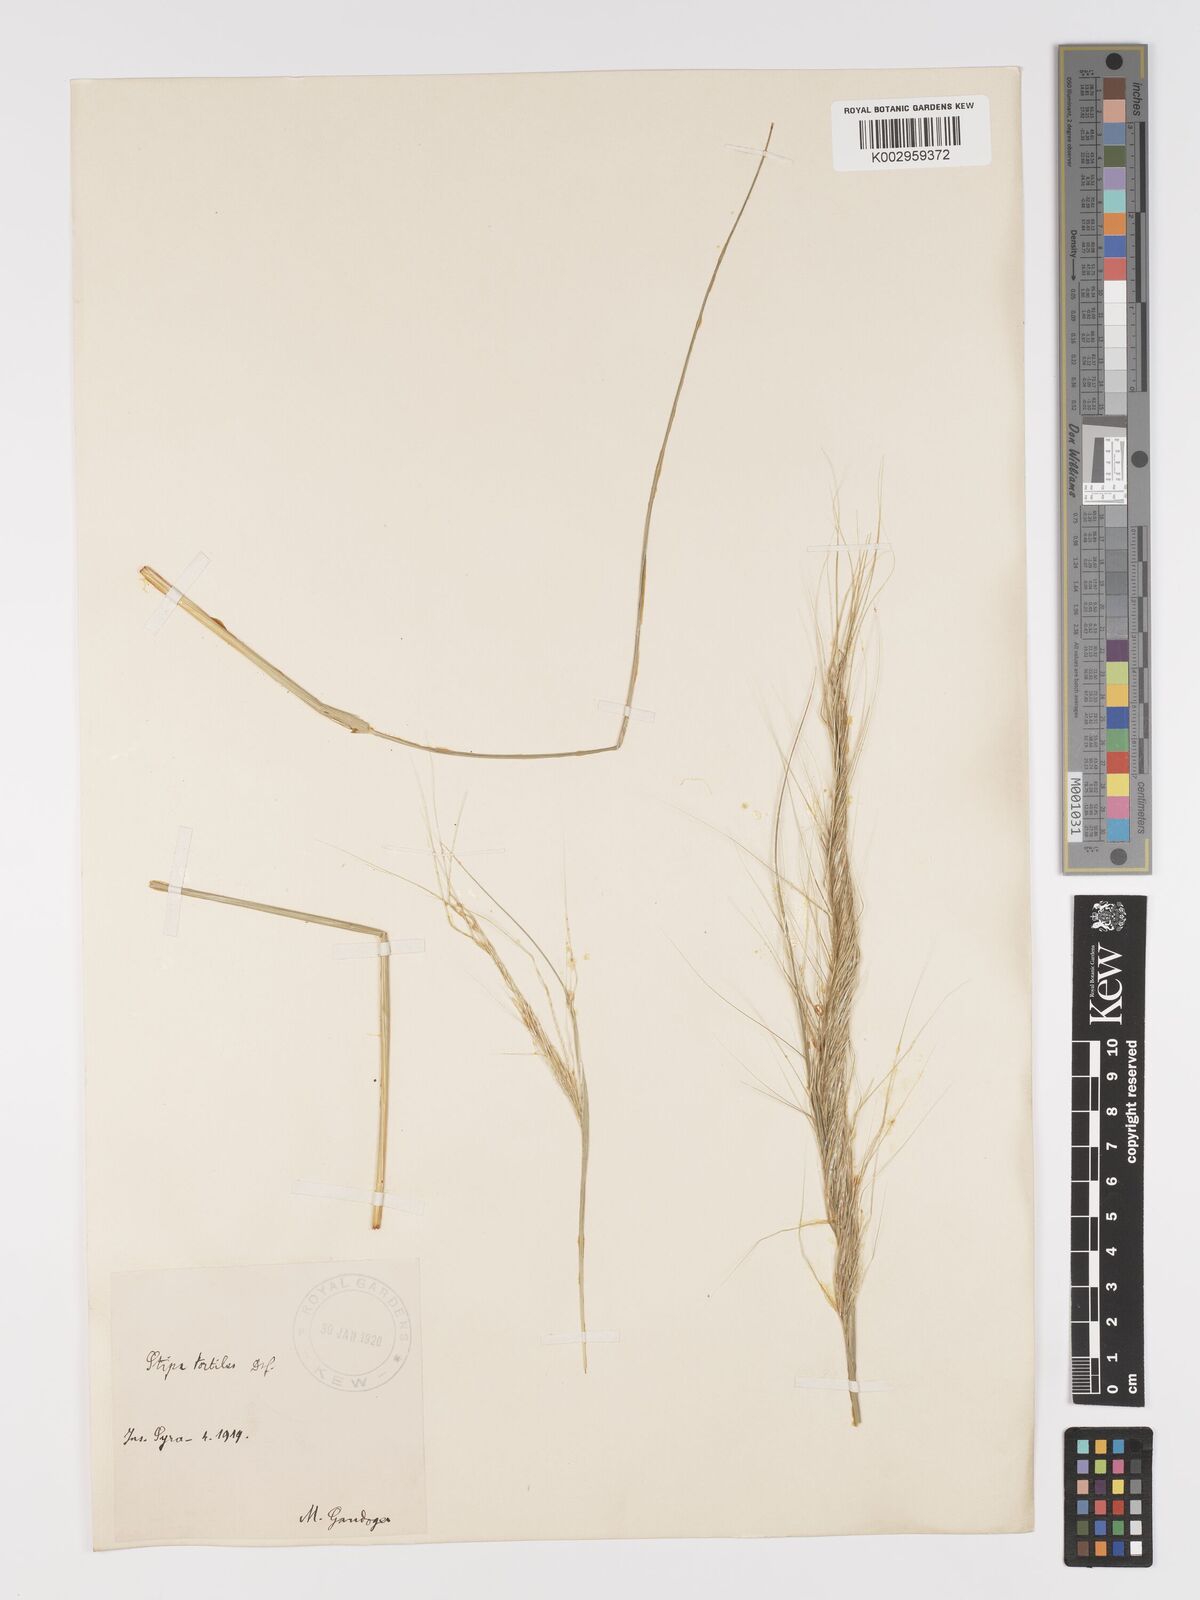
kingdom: Plantae
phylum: Tracheophyta
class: Liliopsida
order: Poales
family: Poaceae
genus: Stipellula
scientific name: Stipellula capensis
